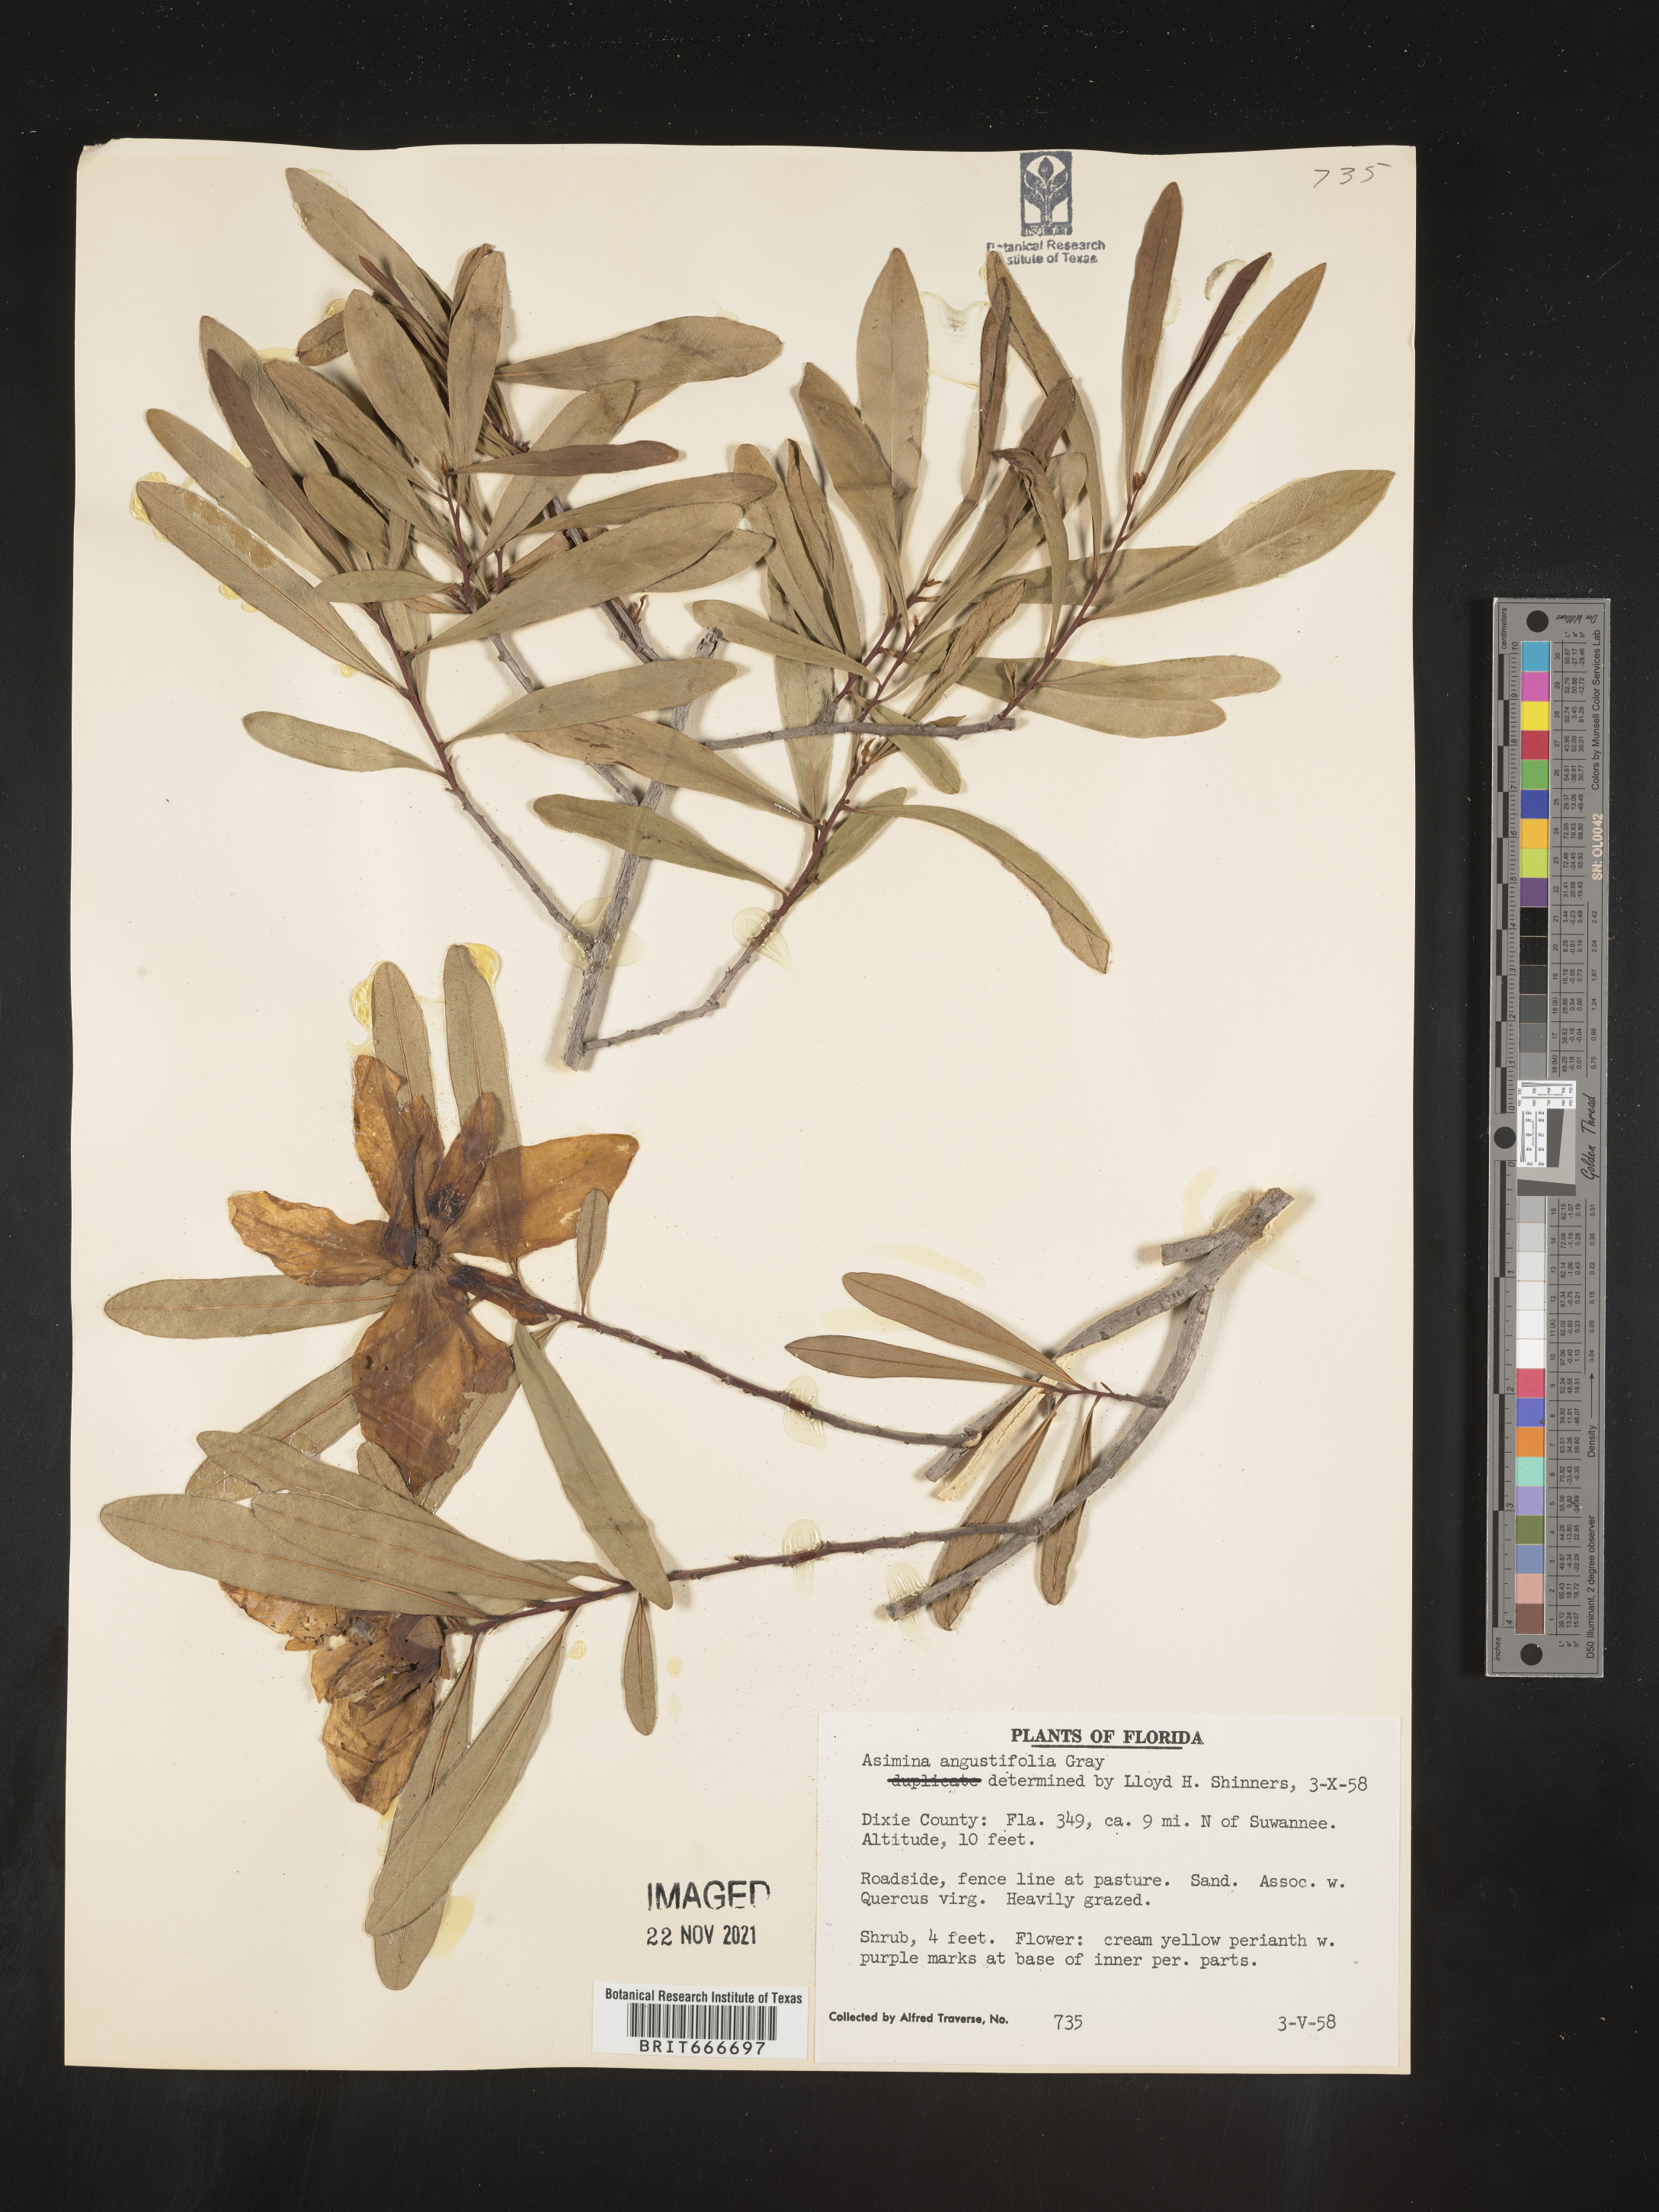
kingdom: Plantae
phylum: Tracheophyta
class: Magnoliopsida
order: Magnoliales
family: Annonaceae
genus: Asimina
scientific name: Asimina
